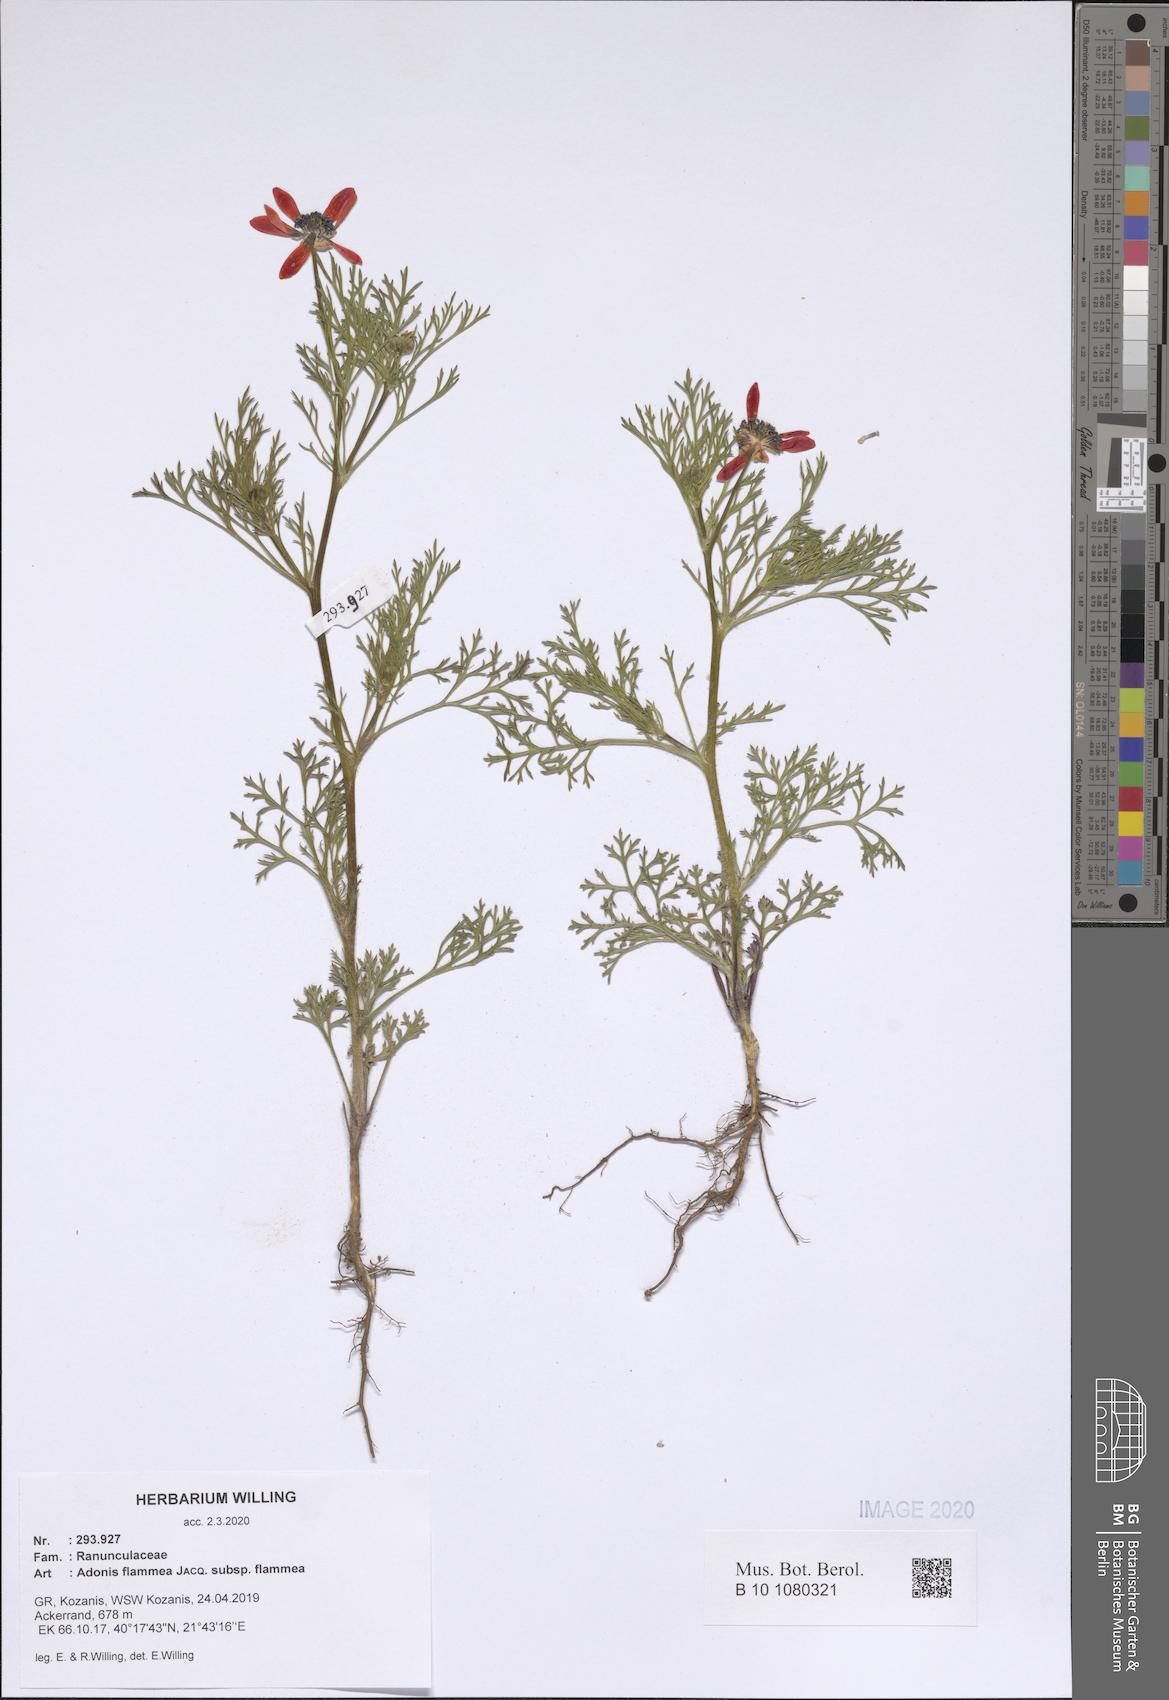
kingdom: Plantae
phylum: Tracheophyta
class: Magnoliopsida
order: Ranunculales
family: Ranunculaceae
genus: Adonis
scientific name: Adonis flammea
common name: Large pheasant's-eye
